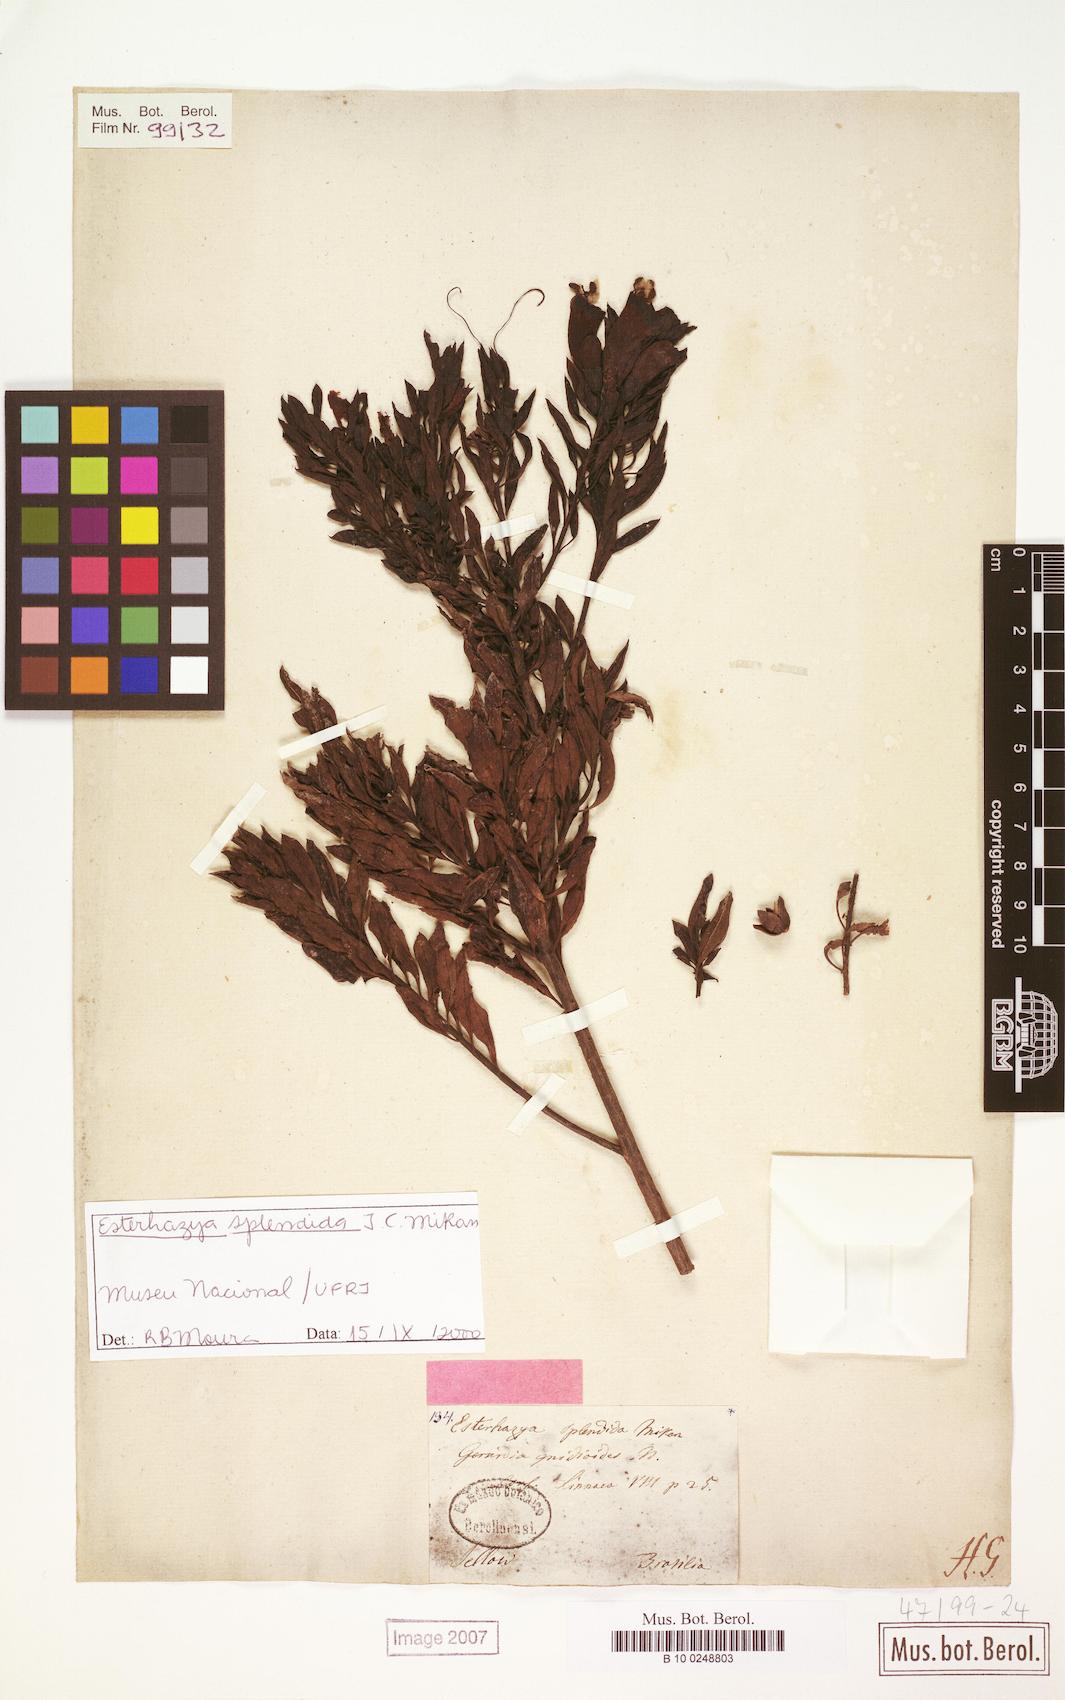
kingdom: Plantae
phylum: Tracheophyta
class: Magnoliopsida
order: Lamiales
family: Orobanchaceae
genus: Esterhazya
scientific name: Esterhazya splendida
